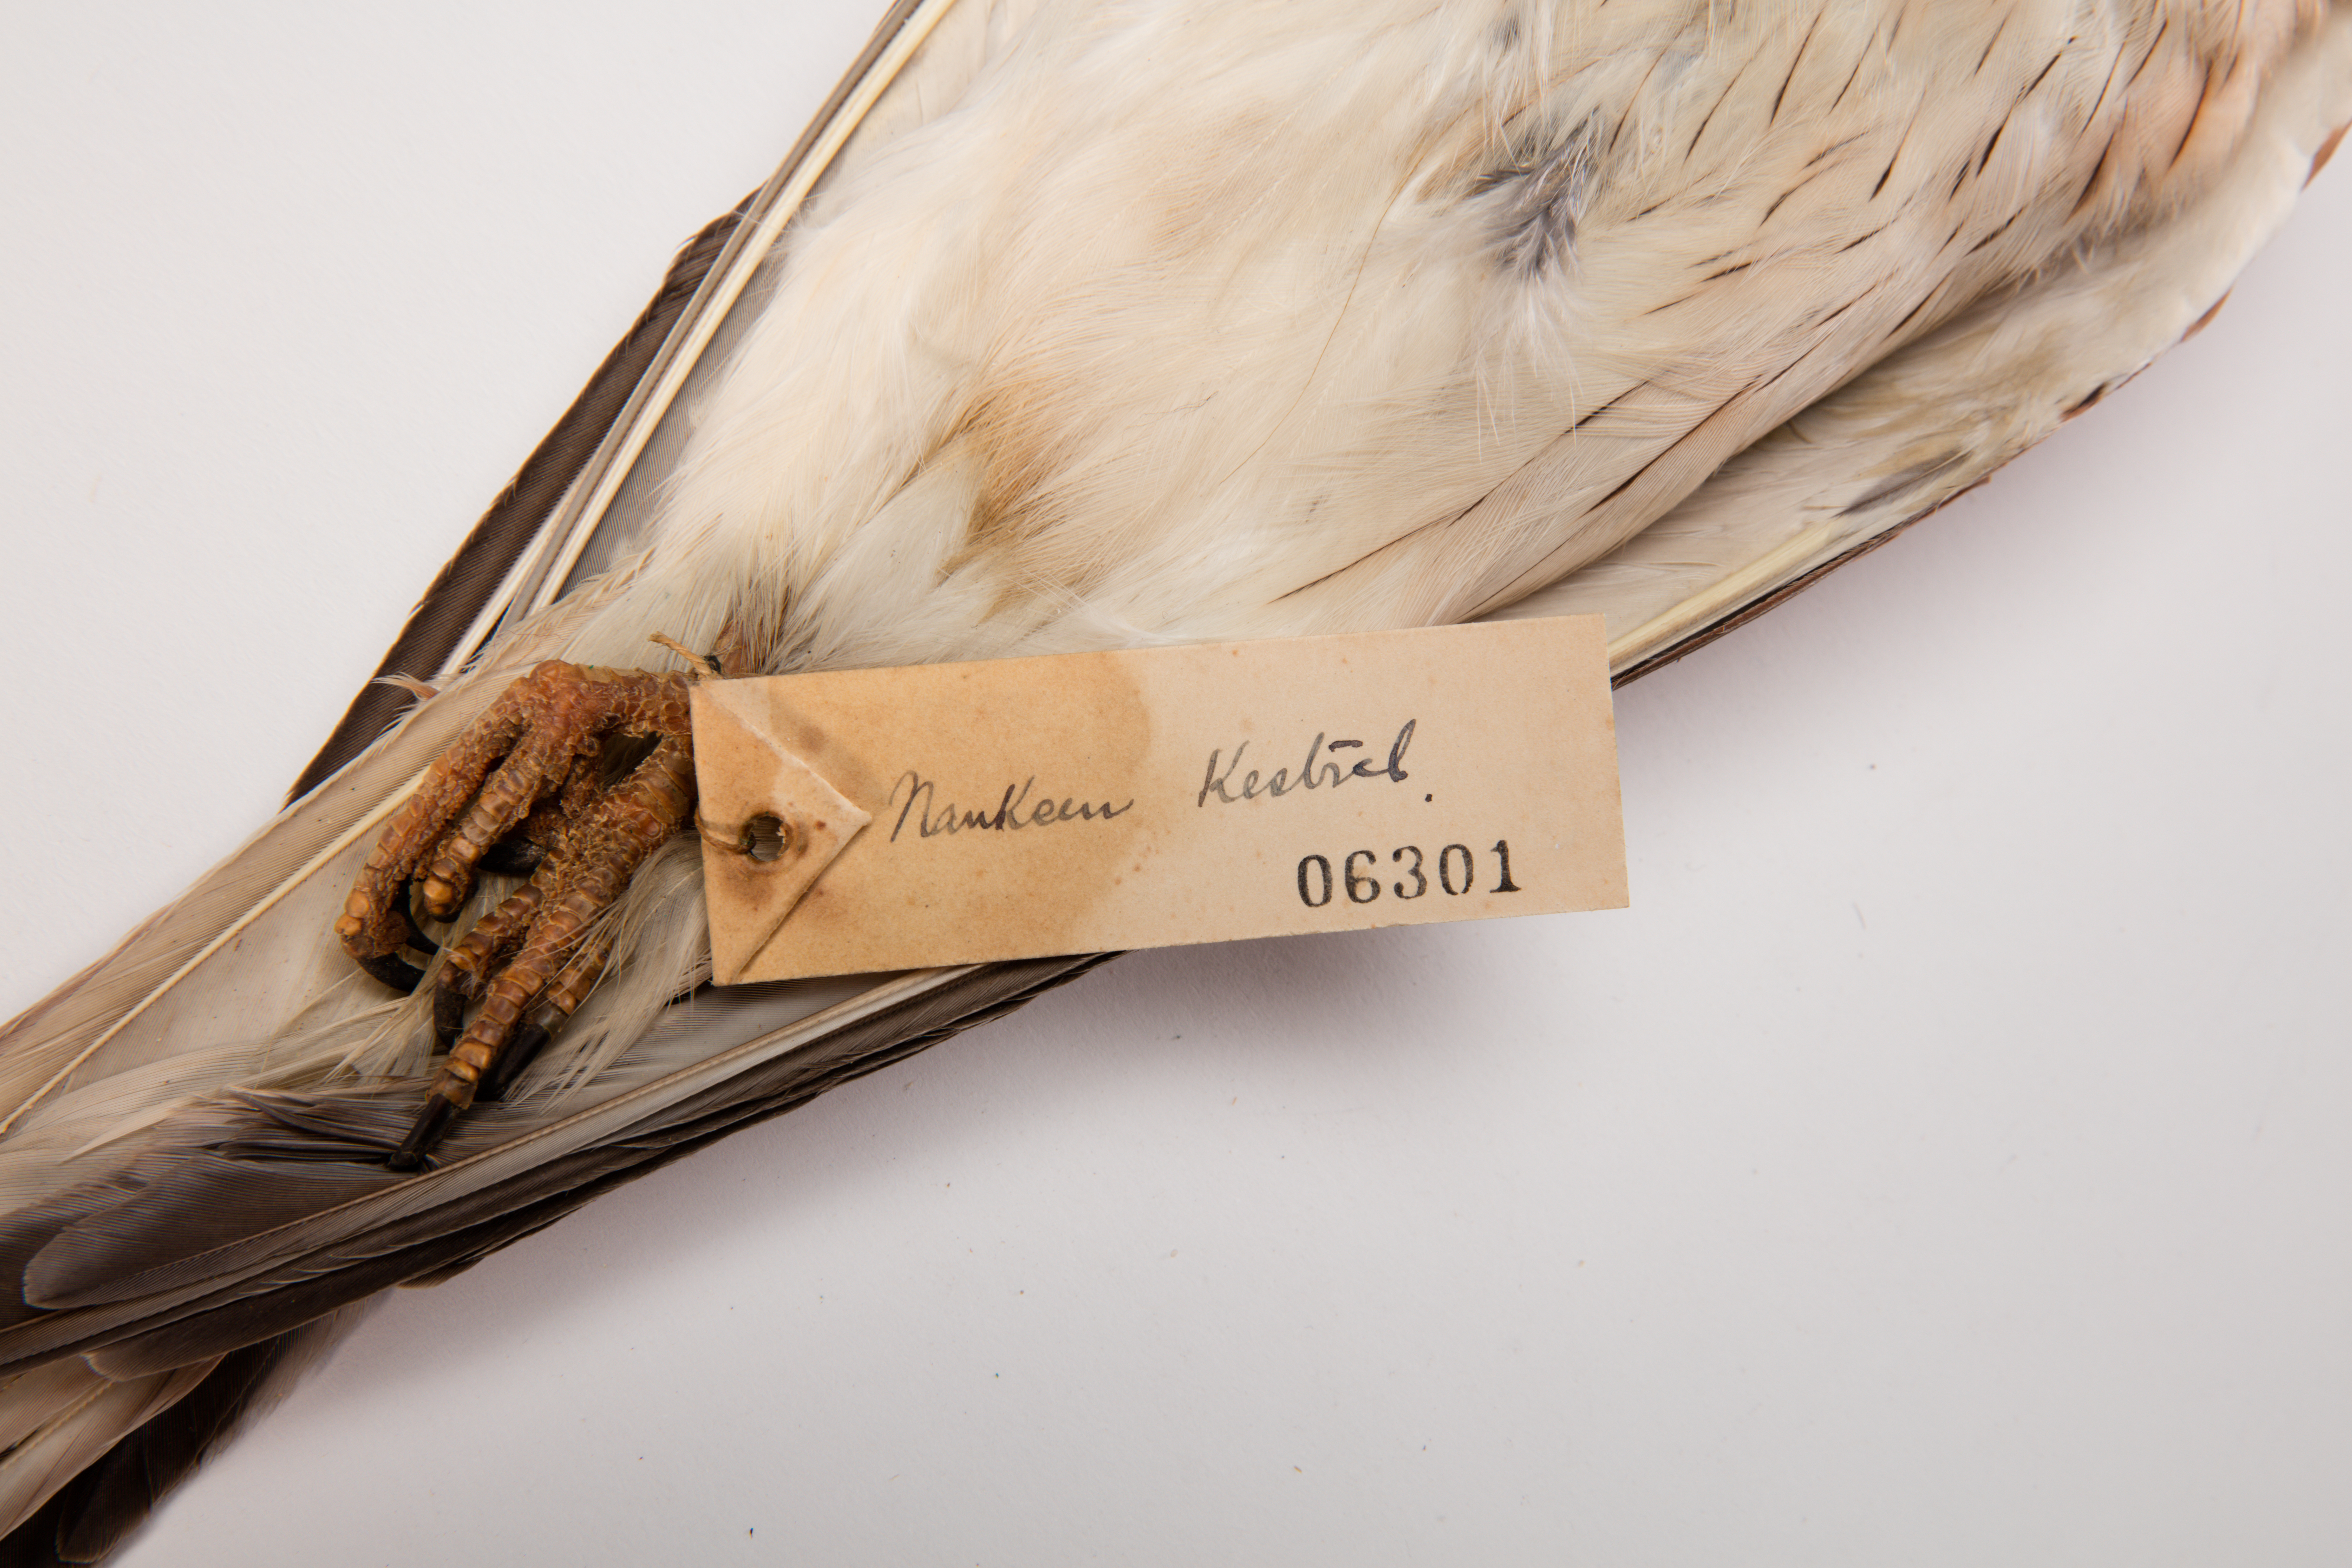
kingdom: Animalia
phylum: Chordata
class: Aves
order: Falconiformes
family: Falconidae
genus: Falco
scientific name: Falco cenchroides
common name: Nankeen kestrel
